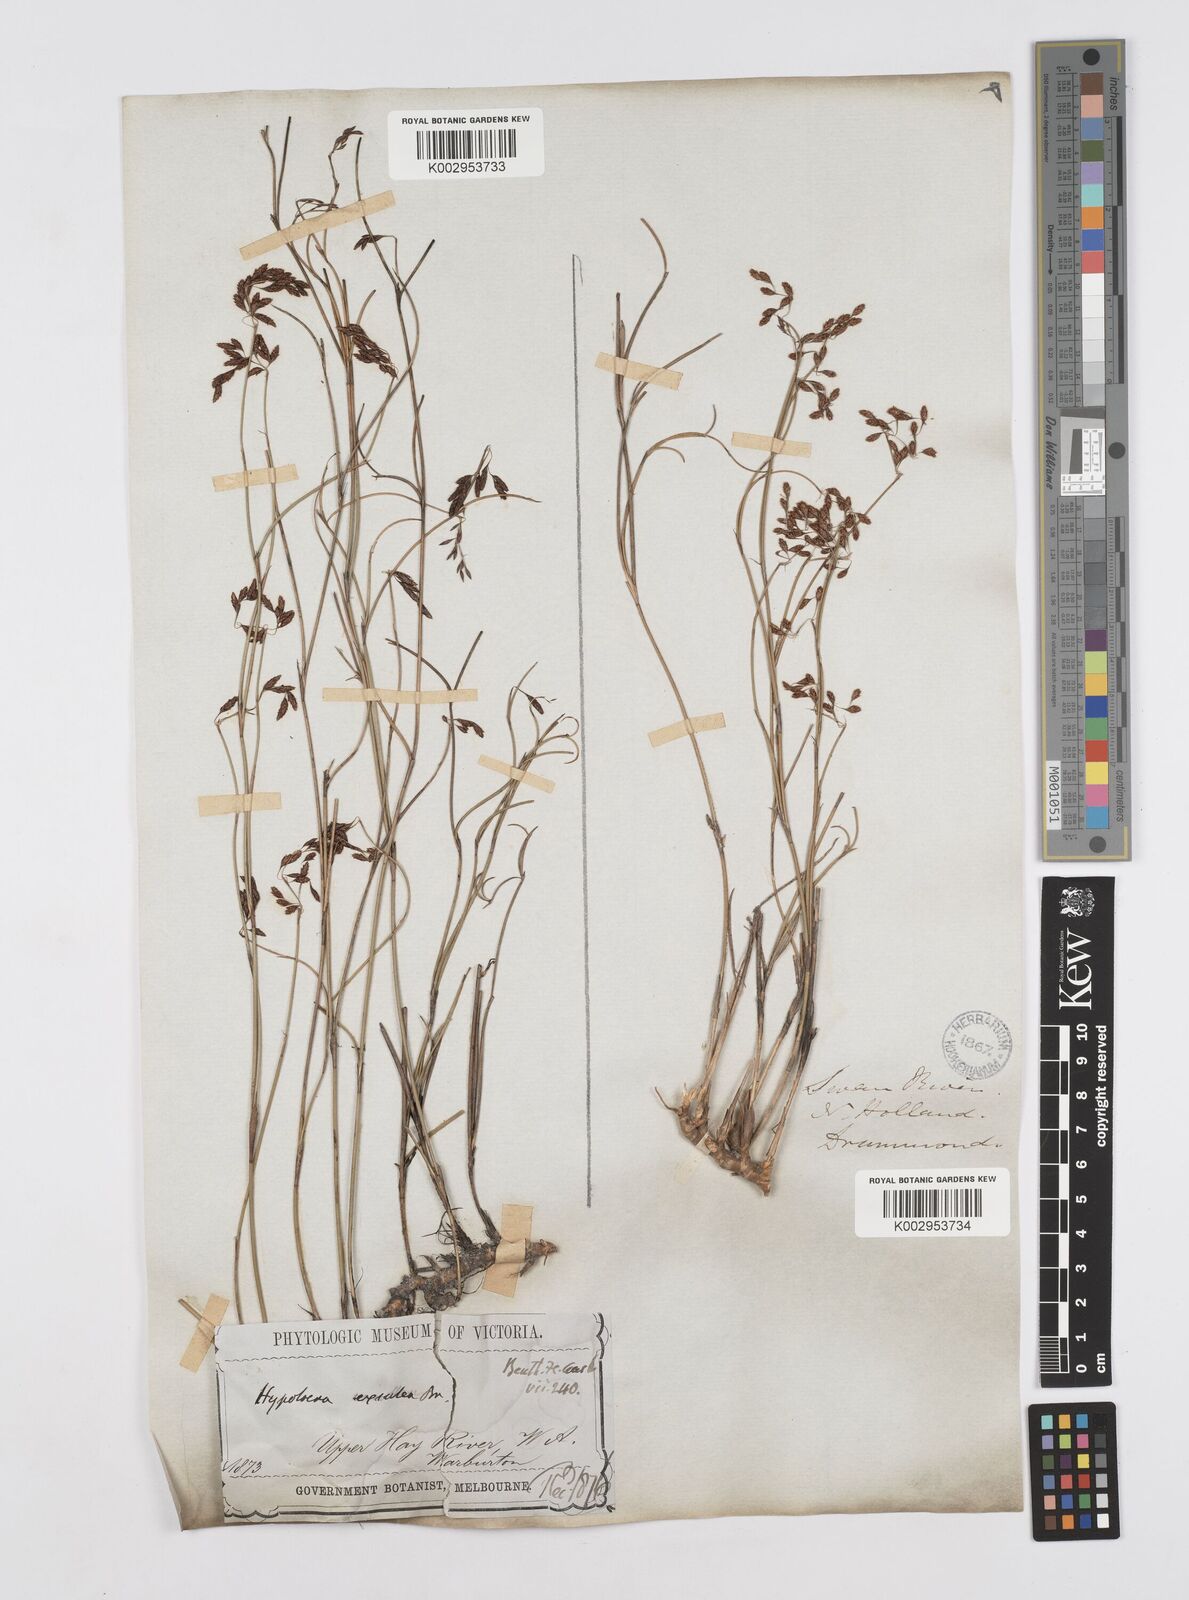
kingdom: Plantae
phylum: Tracheophyta
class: Liliopsida
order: Poales
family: Restionaceae
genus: Hypolaena
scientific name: Hypolaena exsulca
